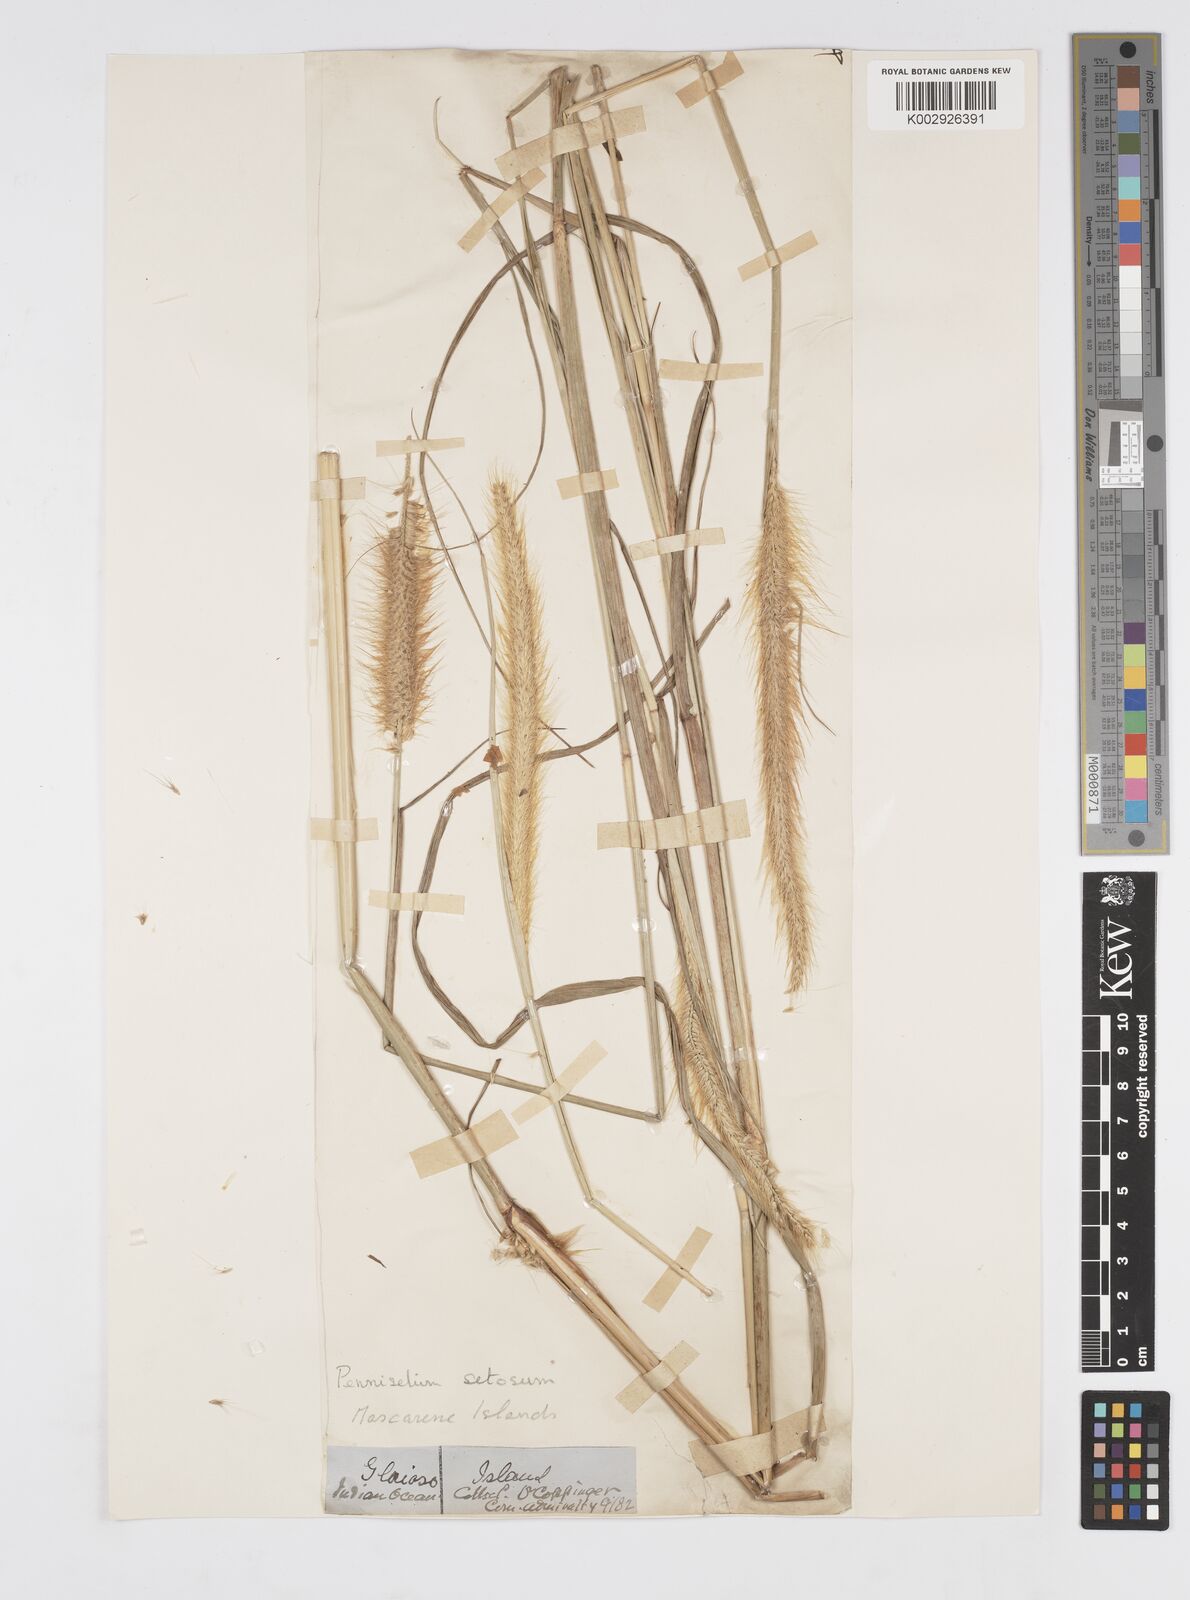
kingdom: Plantae
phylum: Tracheophyta
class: Liliopsida
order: Poales
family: Poaceae
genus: Setaria
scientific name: Setaria parviflora
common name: Knotroot bristle-grass
